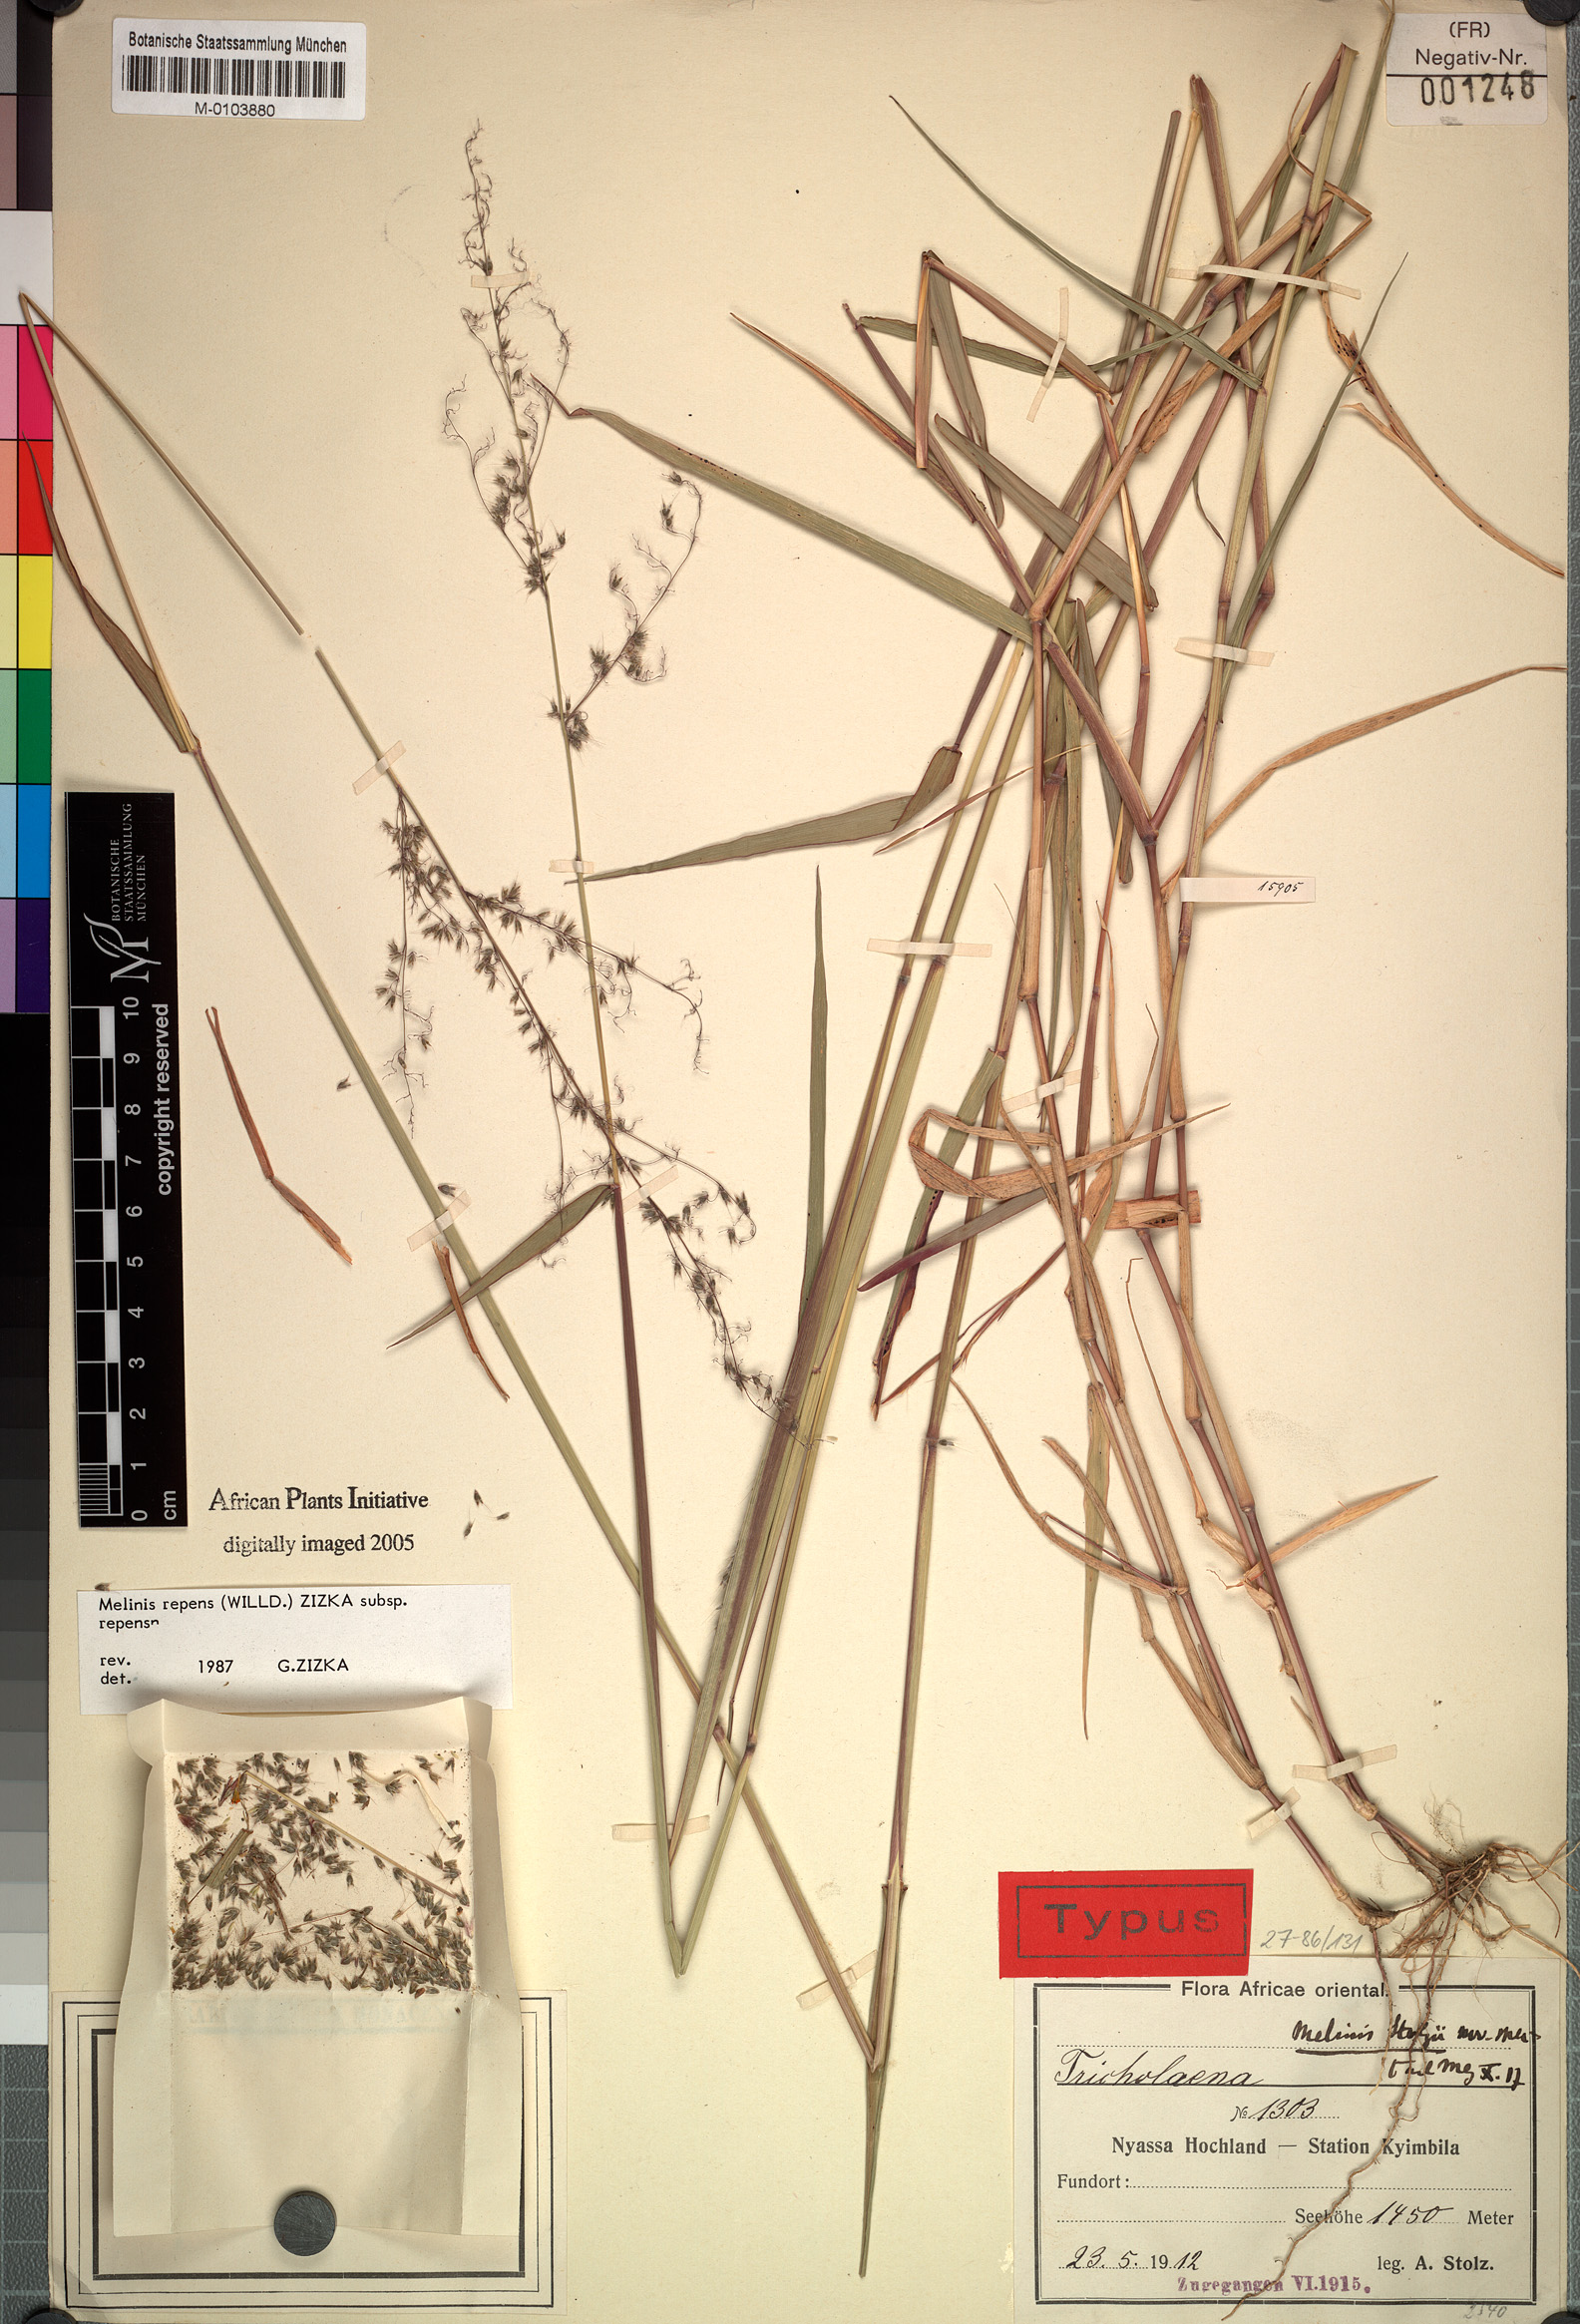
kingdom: Plantae
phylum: Tracheophyta
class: Liliopsida
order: Poales
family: Poaceae
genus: Melinis
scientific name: Melinis repens
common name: Rose natal grass
